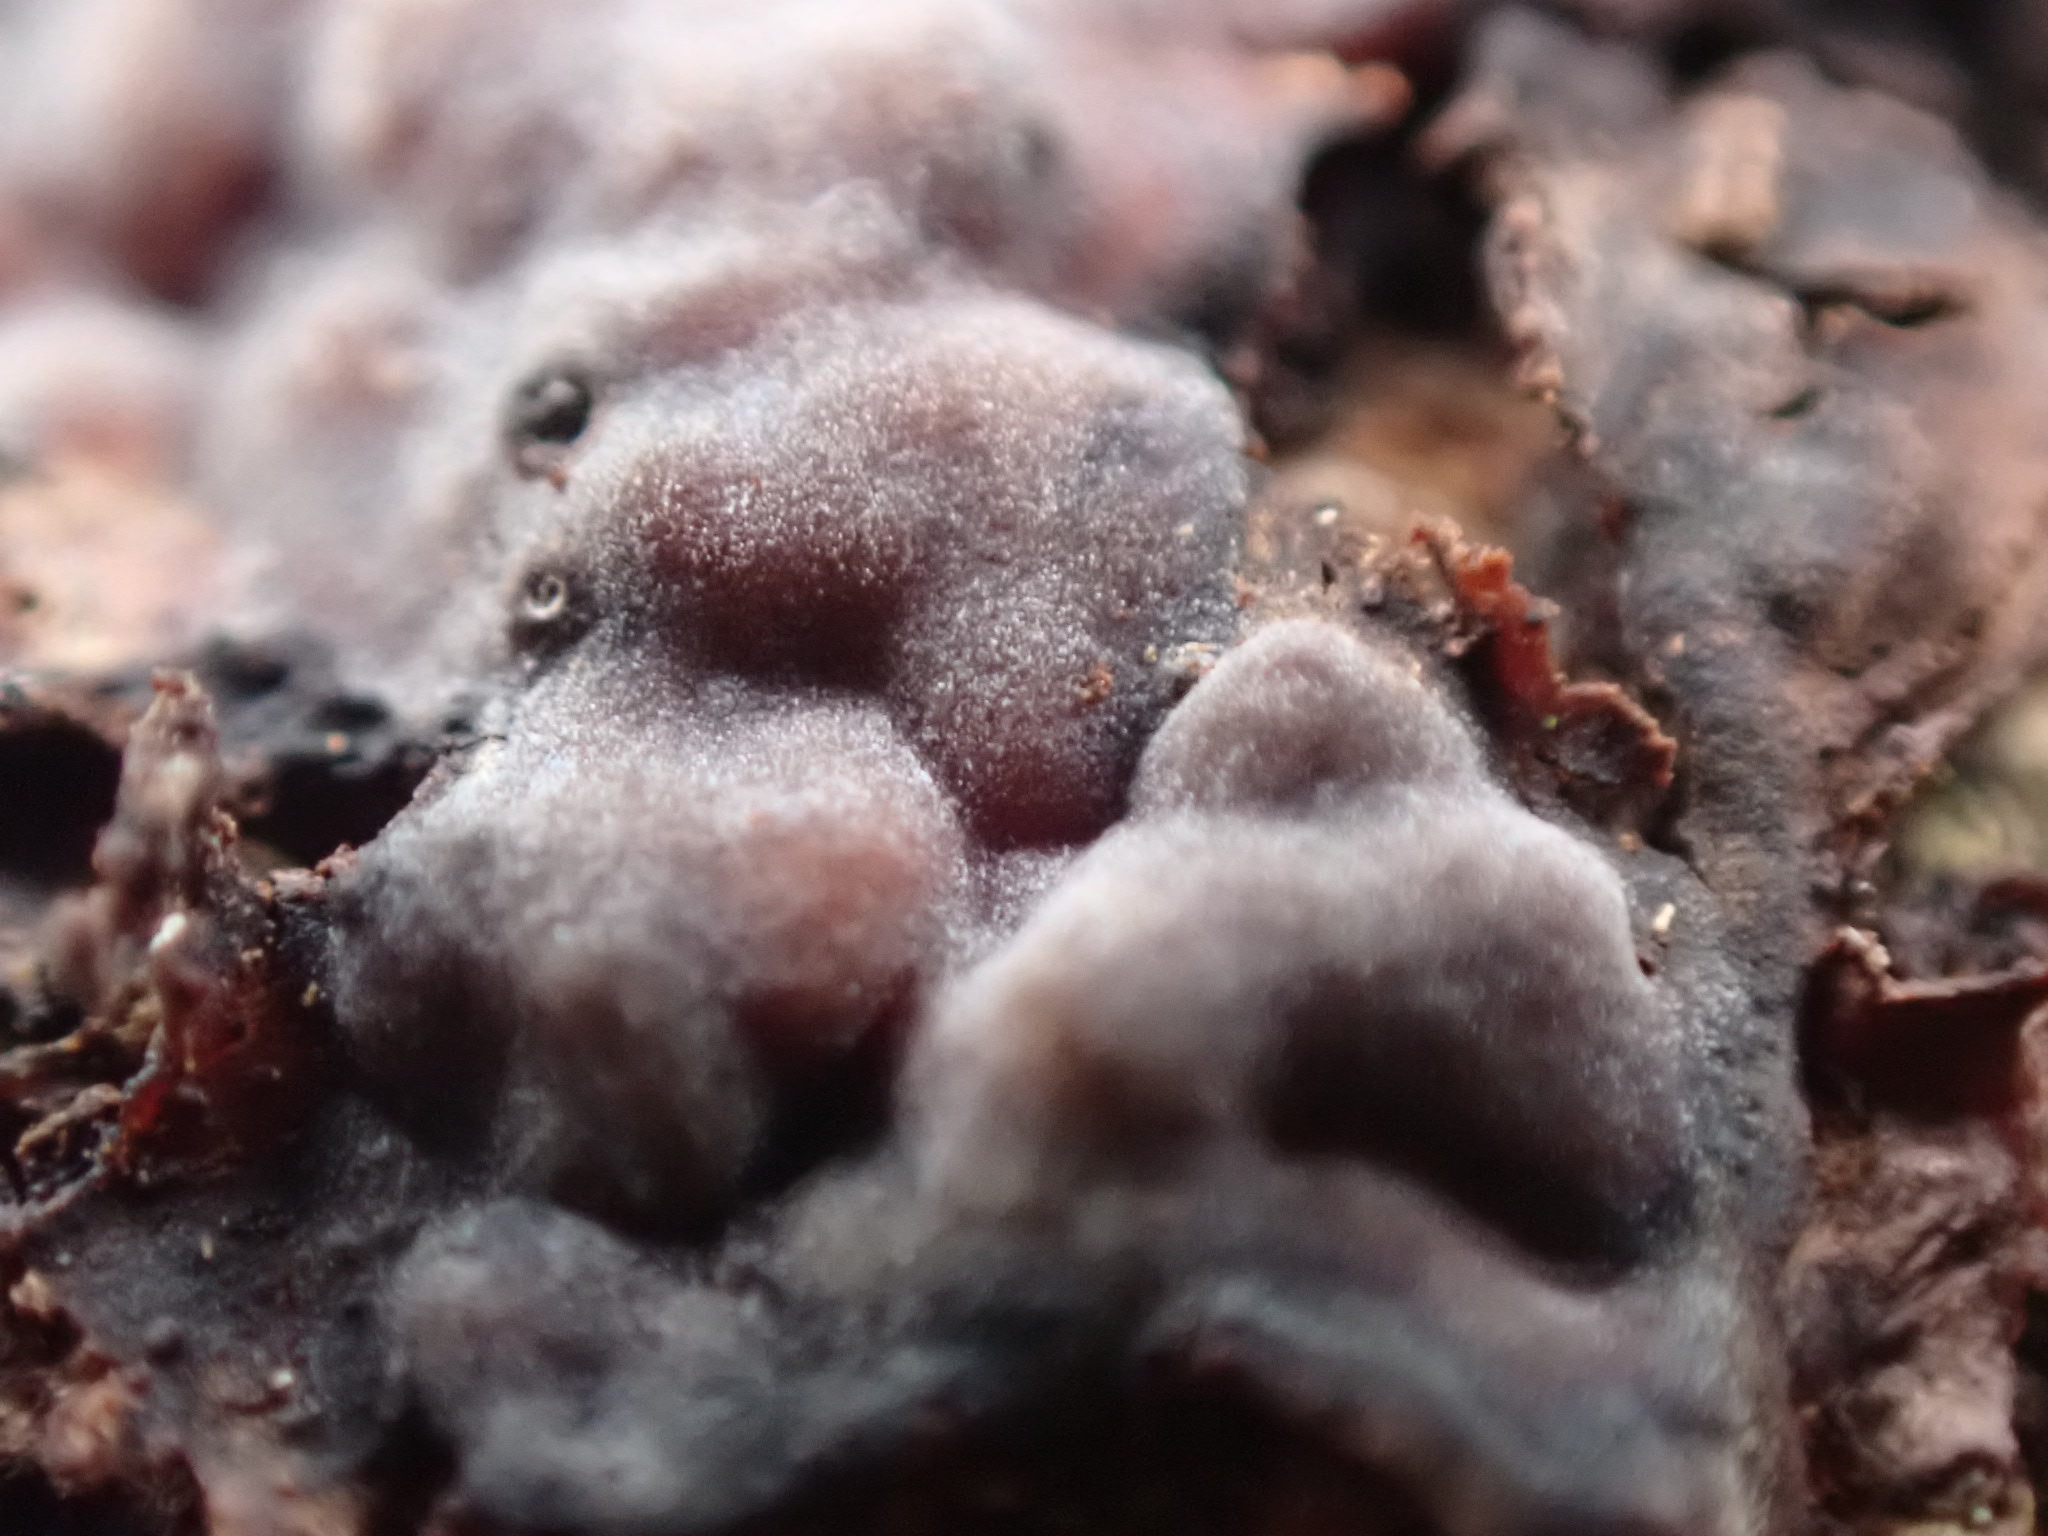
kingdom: Fungi
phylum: Basidiomycota
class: Agaricomycetes
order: Russulales
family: Peniophoraceae
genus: Peniophora
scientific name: Peniophora quercina
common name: ege-voksskind
